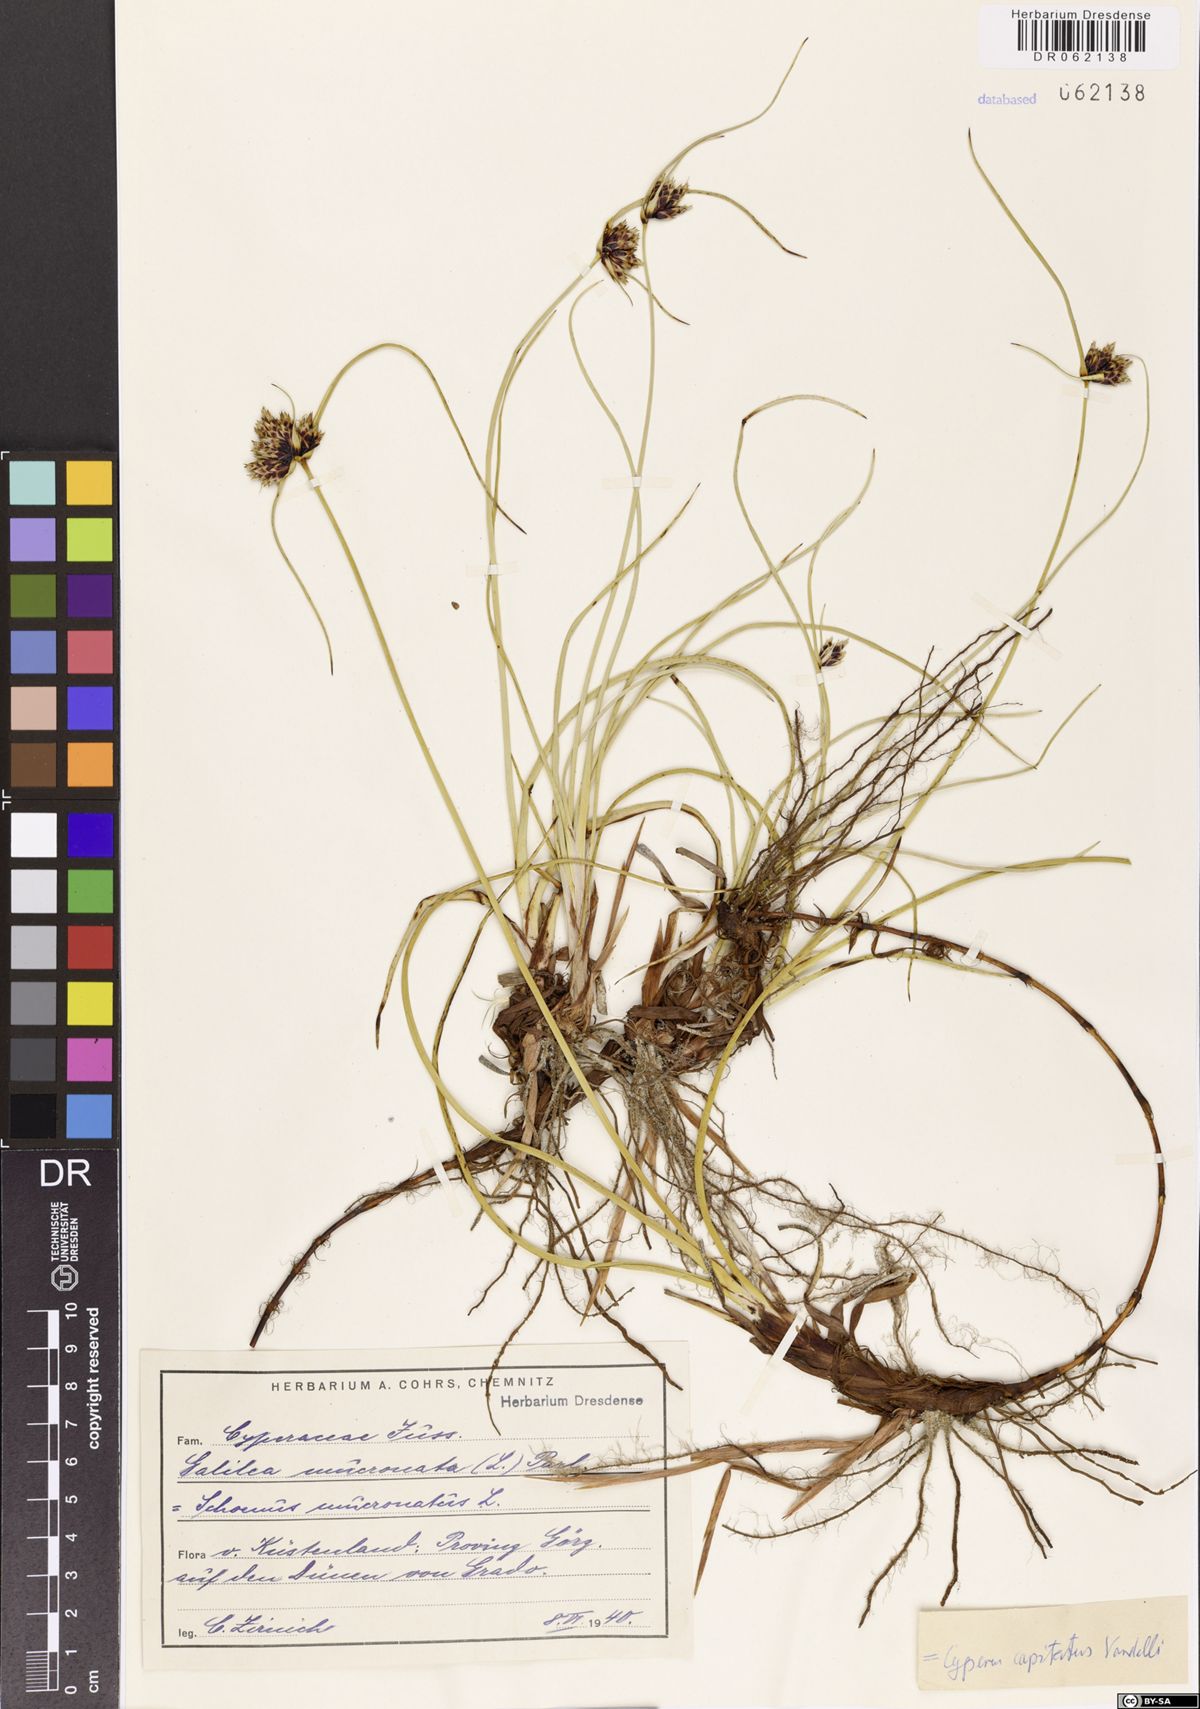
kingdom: Plantae
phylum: Tracheophyta
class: Liliopsida
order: Poales
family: Cyperaceae
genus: Cyperus
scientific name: Cyperus capitatus
